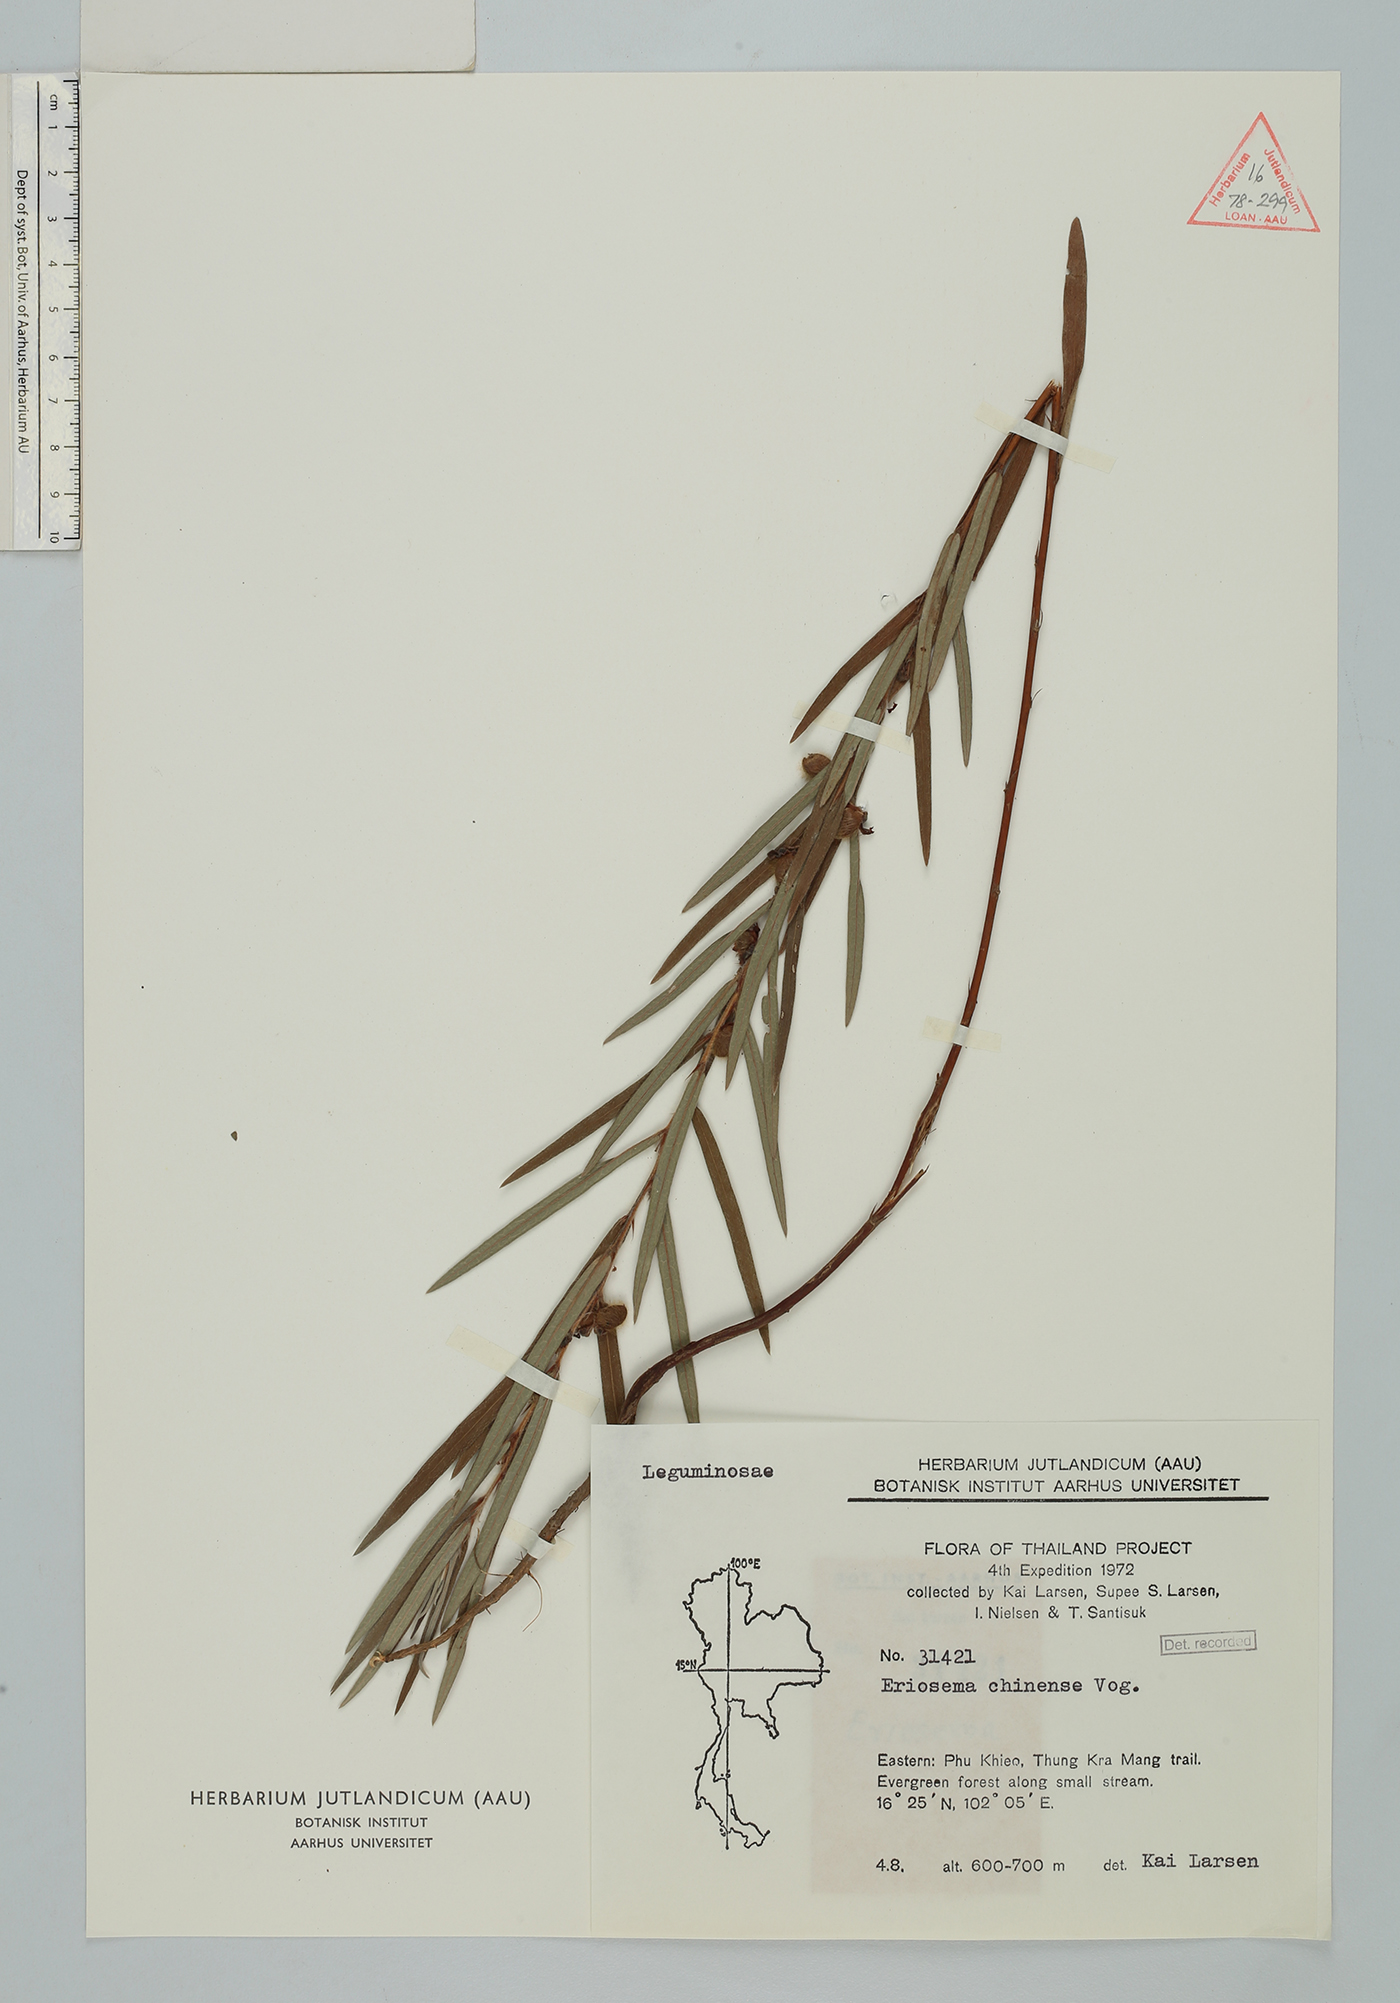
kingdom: Plantae
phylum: Tracheophyta
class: Magnoliopsida
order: Fabales
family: Fabaceae
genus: Eriosema
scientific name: Eriosema chinense
